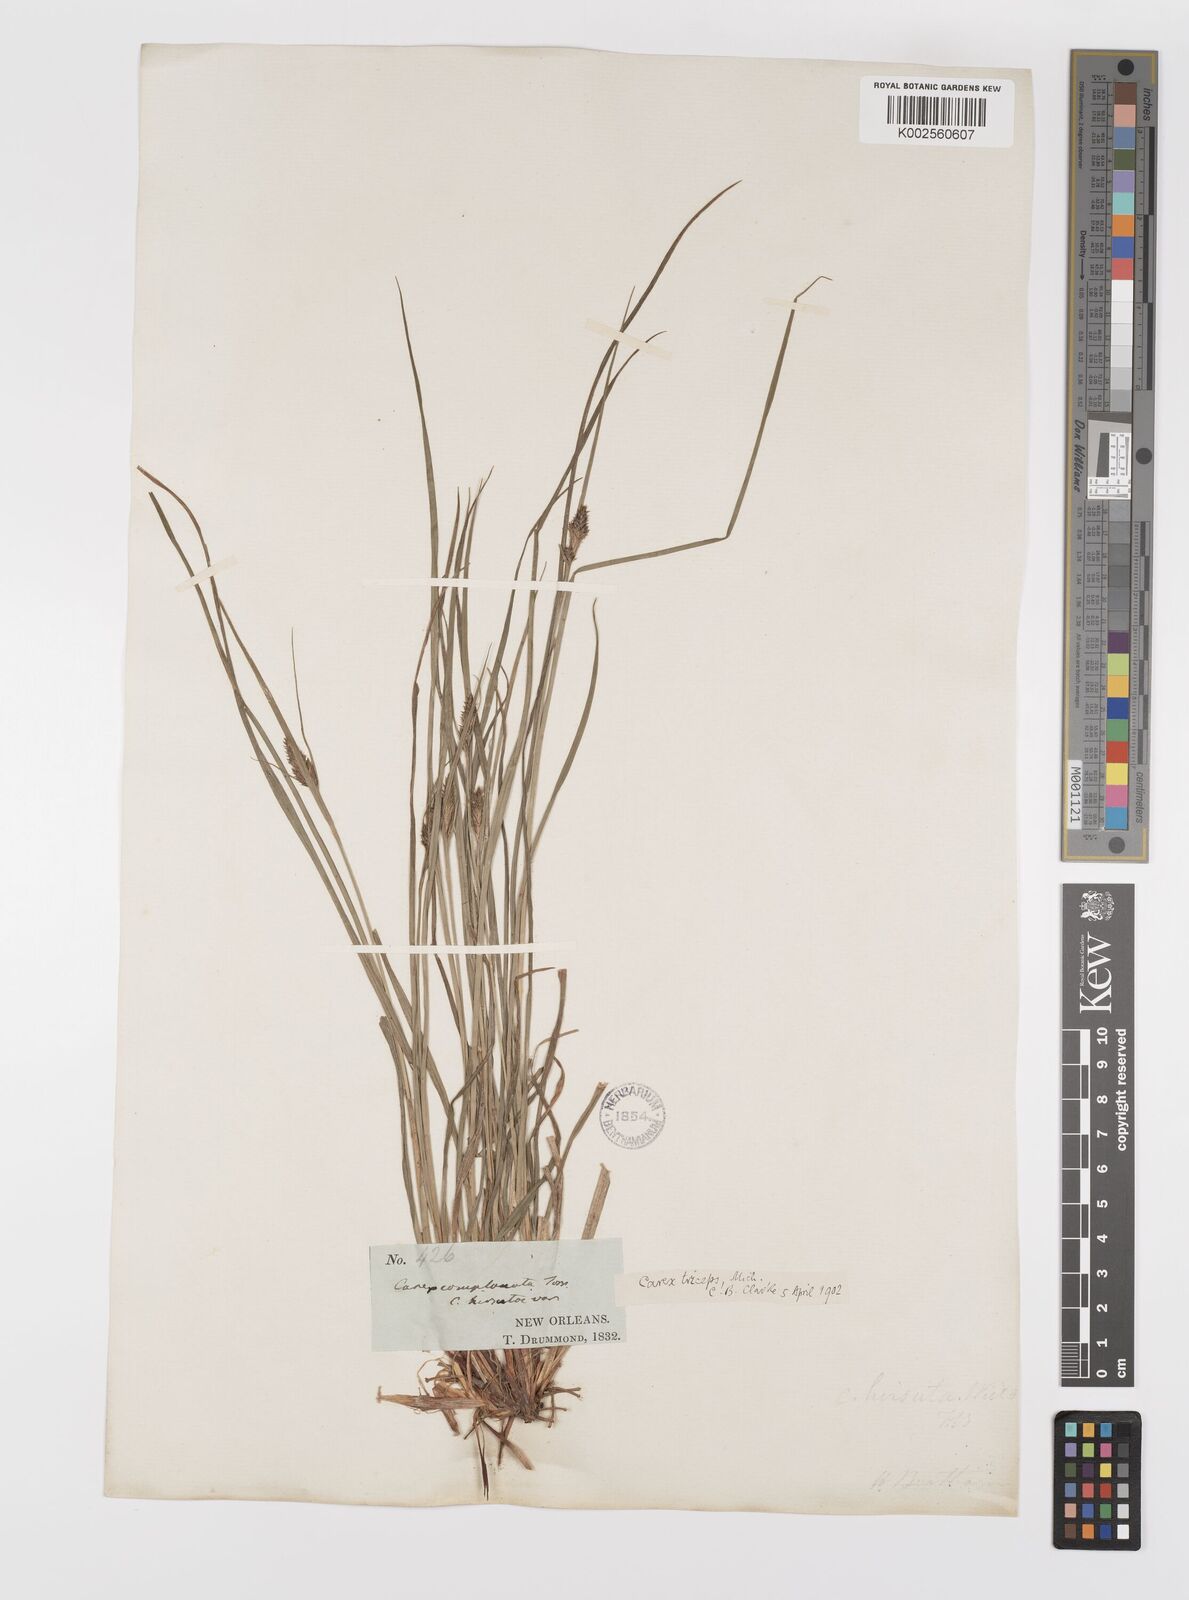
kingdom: Plantae
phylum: Tracheophyta
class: Liliopsida
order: Poales
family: Cyperaceae
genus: Carex
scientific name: Carex complanata
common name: Hirsute sedge
